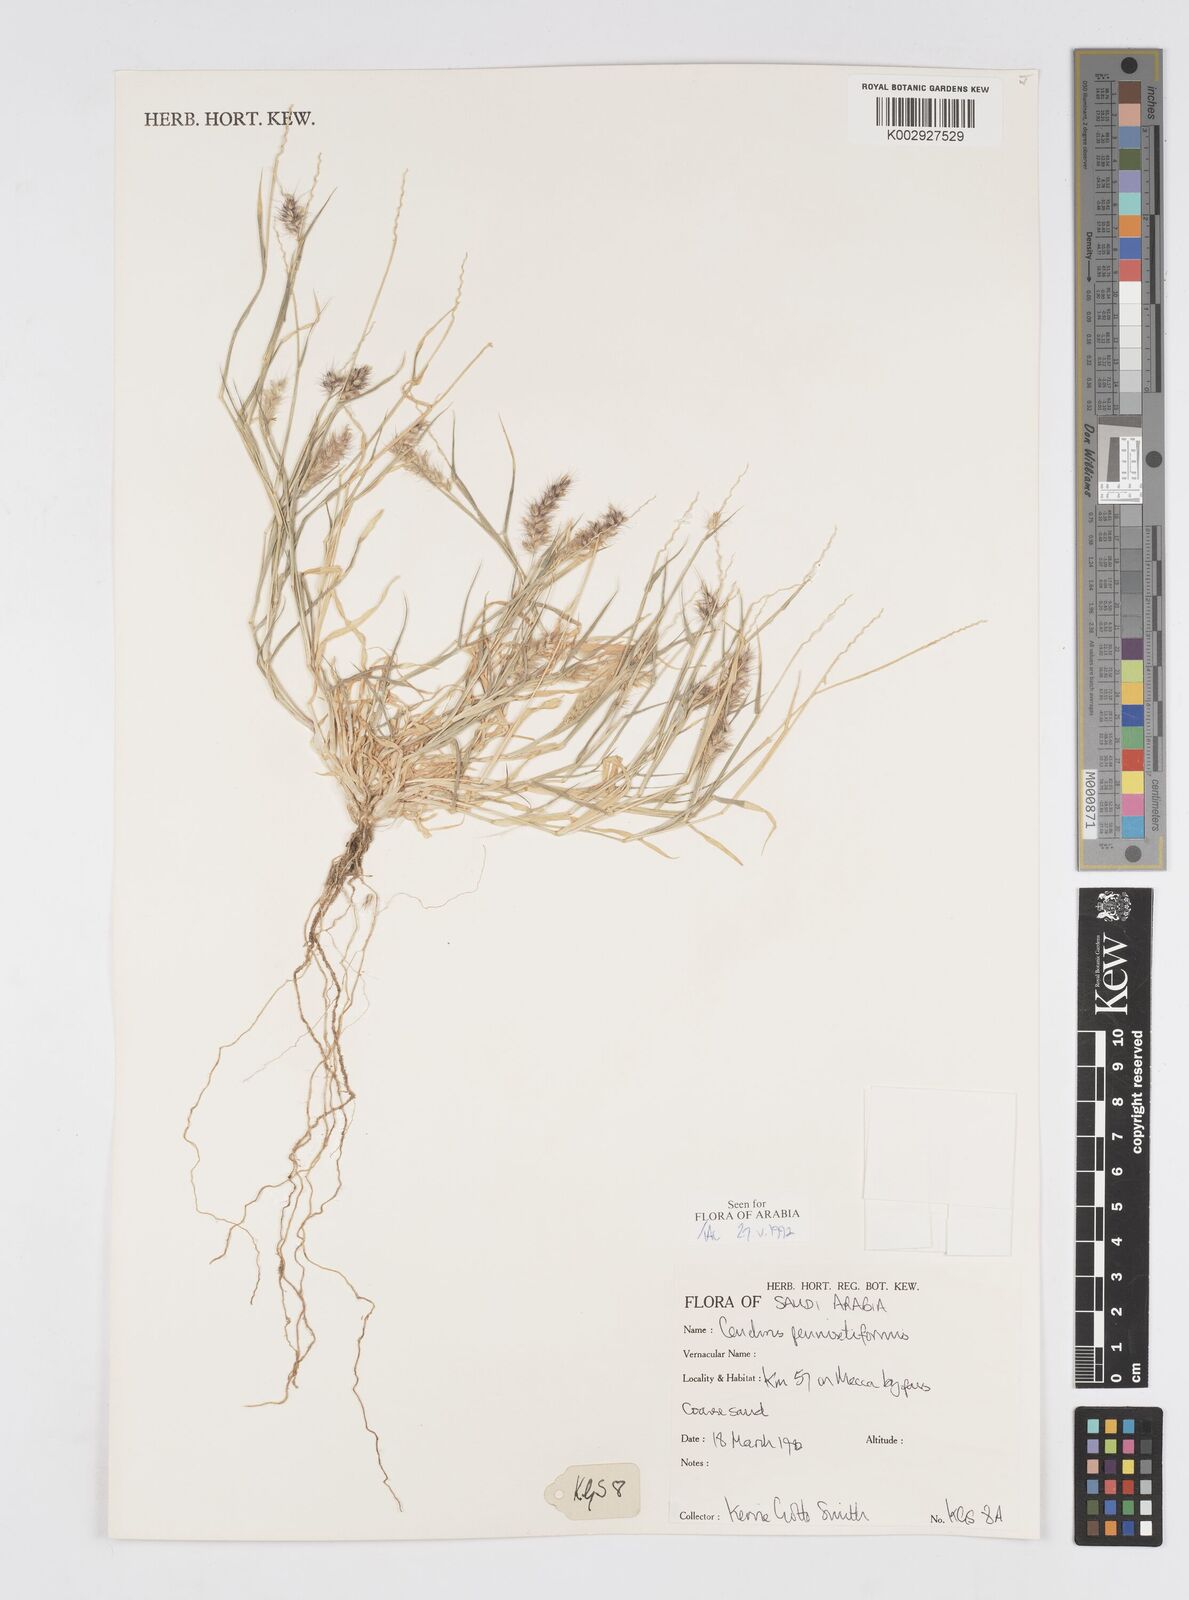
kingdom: Plantae
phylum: Tracheophyta
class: Liliopsida
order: Poales
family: Poaceae
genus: Cenchrus
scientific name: Cenchrus
